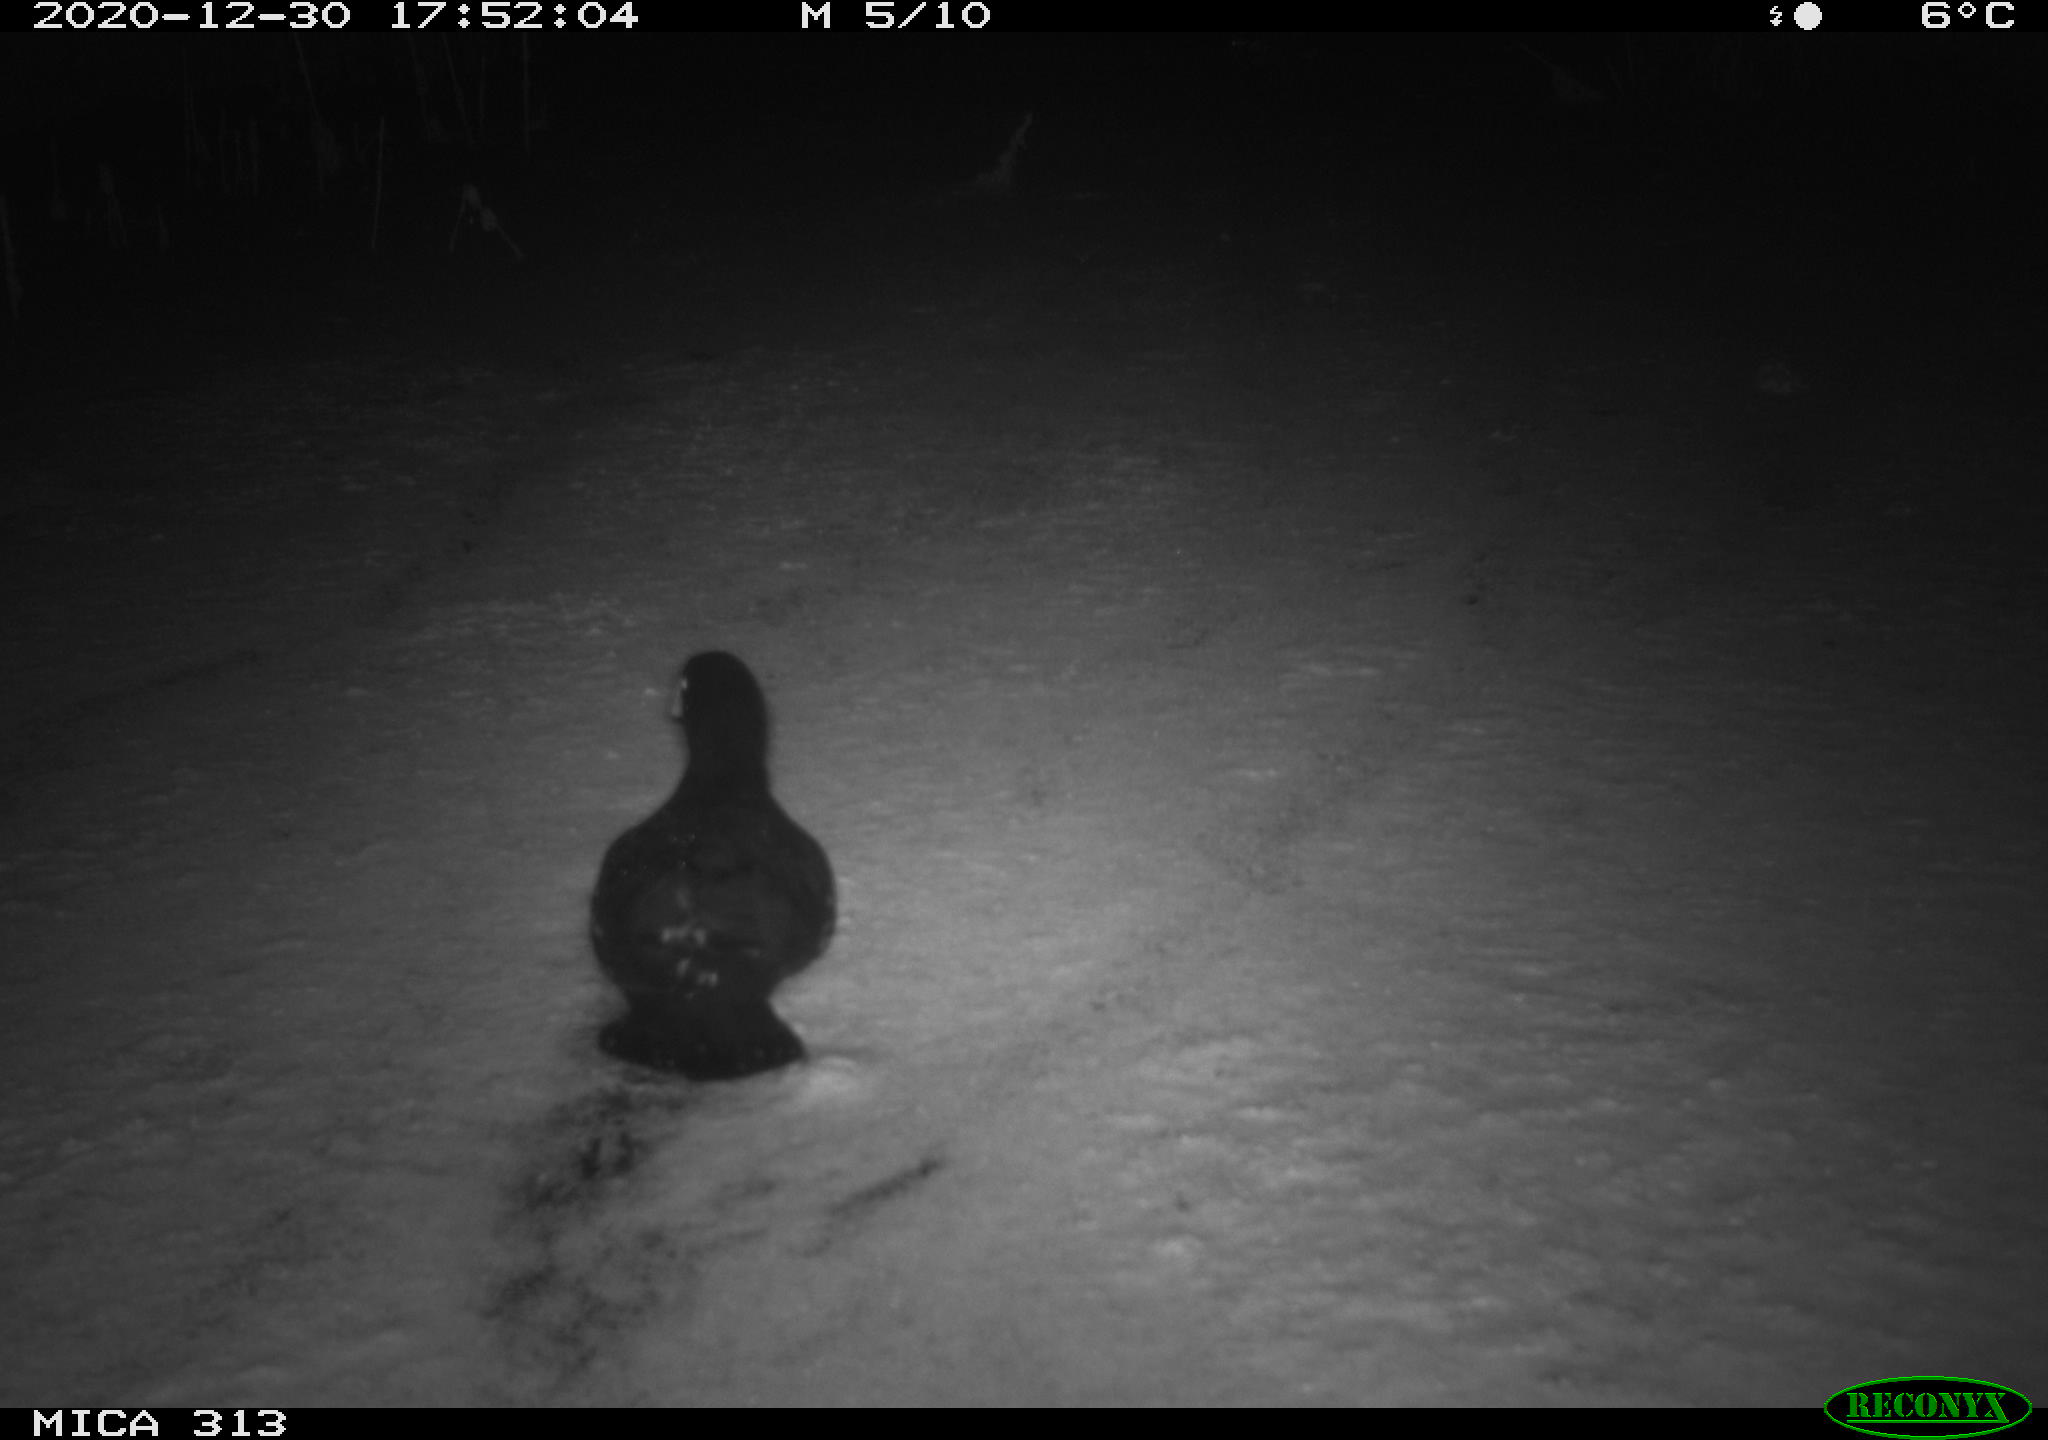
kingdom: Animalia
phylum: Chordata
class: Aves
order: Gruiformes
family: Rallidae
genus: Gallinula
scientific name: Gallinula chloropus
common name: Common moorhen
